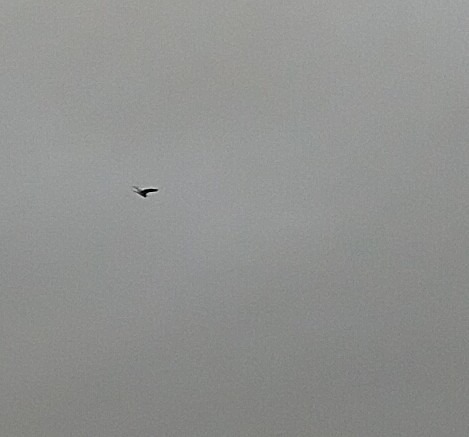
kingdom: Animalia
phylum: Chordata
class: Aves
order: Pelecaniformes
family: Ardeidae
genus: Ardea
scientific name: Ardea cinerea
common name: Fiskehejre
